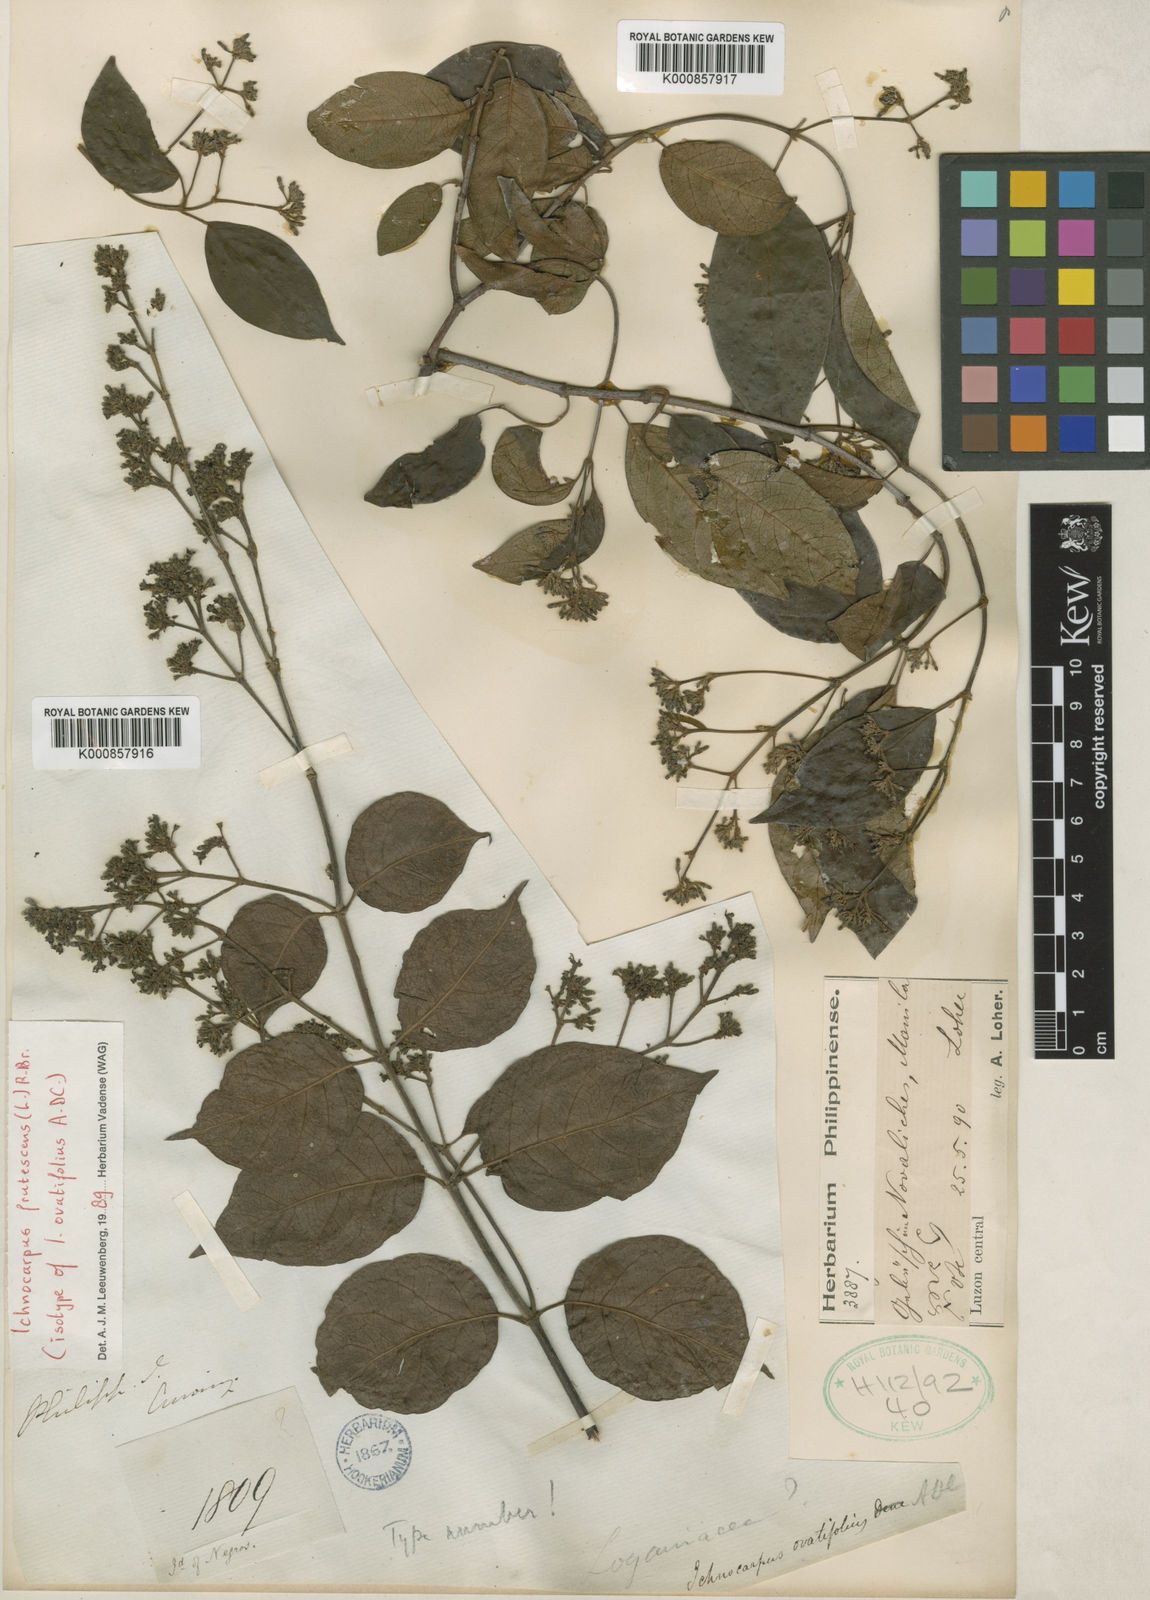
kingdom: Plantae
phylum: Tracheophyta
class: Magnoliopsida
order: Gentianales
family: Apocynaceae
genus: Ichnocarpus
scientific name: Ichnocarpus frutescens
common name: Ichnocarpus
